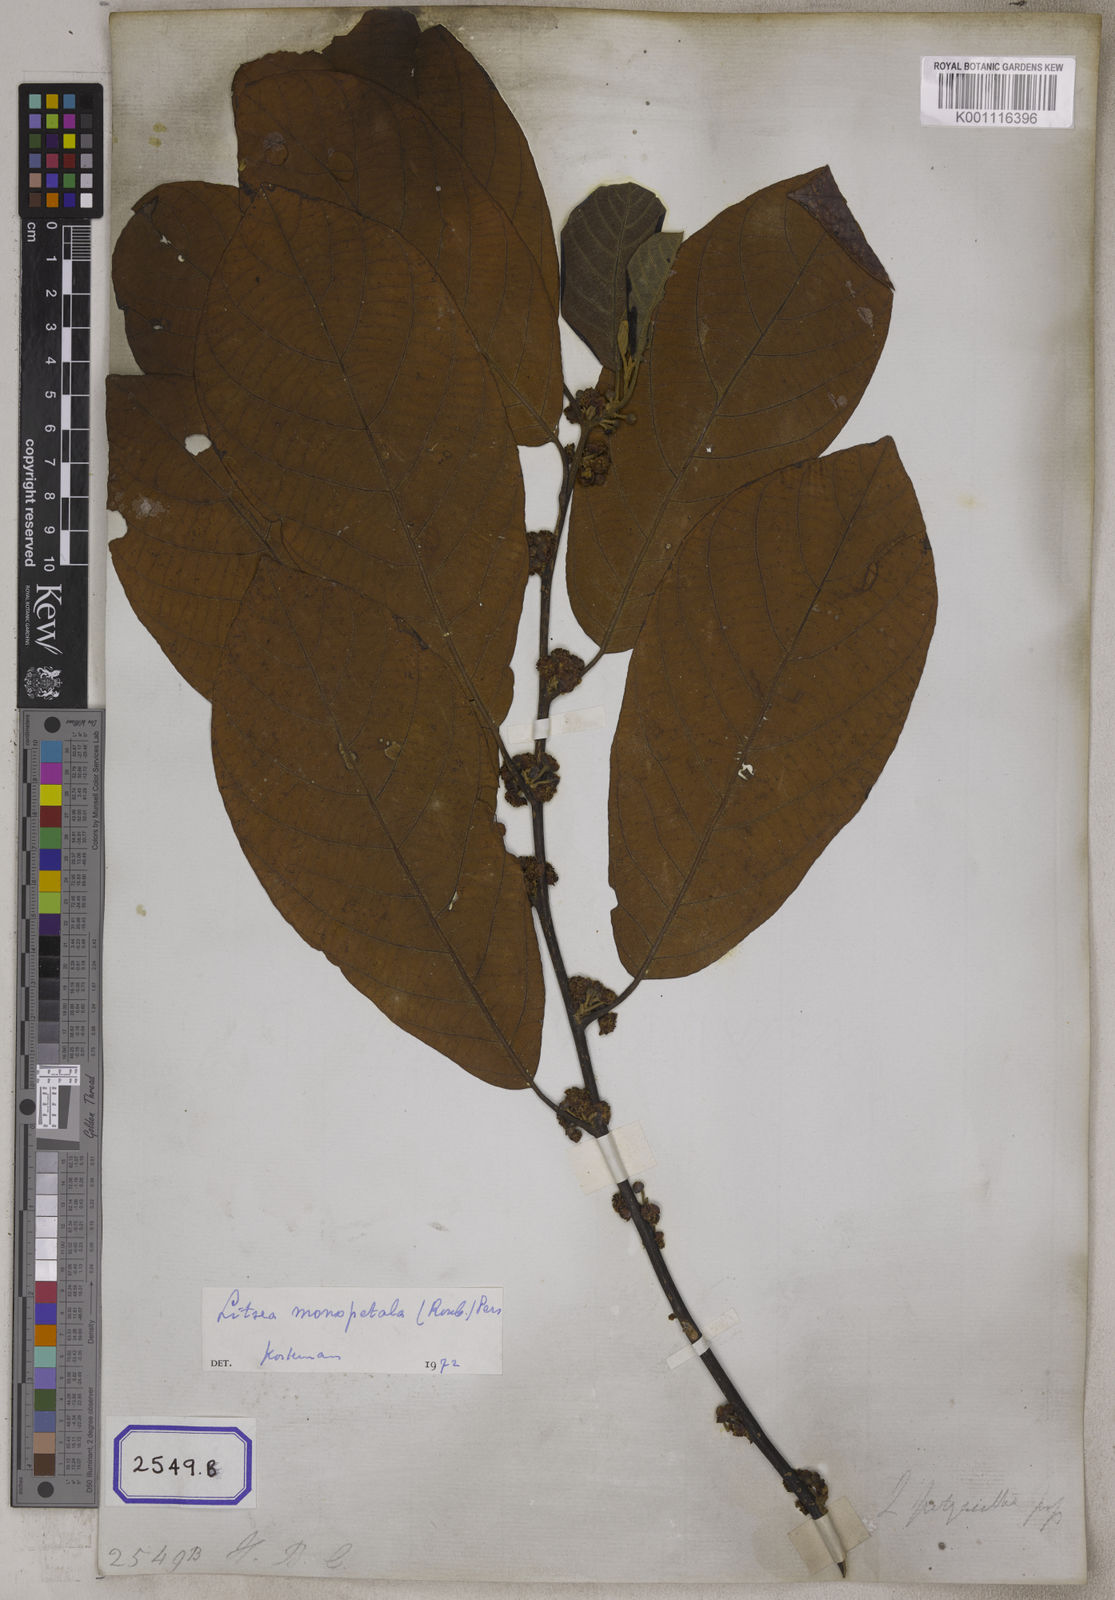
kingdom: Plantae
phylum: Tracheophyta
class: Magnoliopsida
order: Laurales
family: Lauraceae
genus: Litsea
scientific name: Litsea
